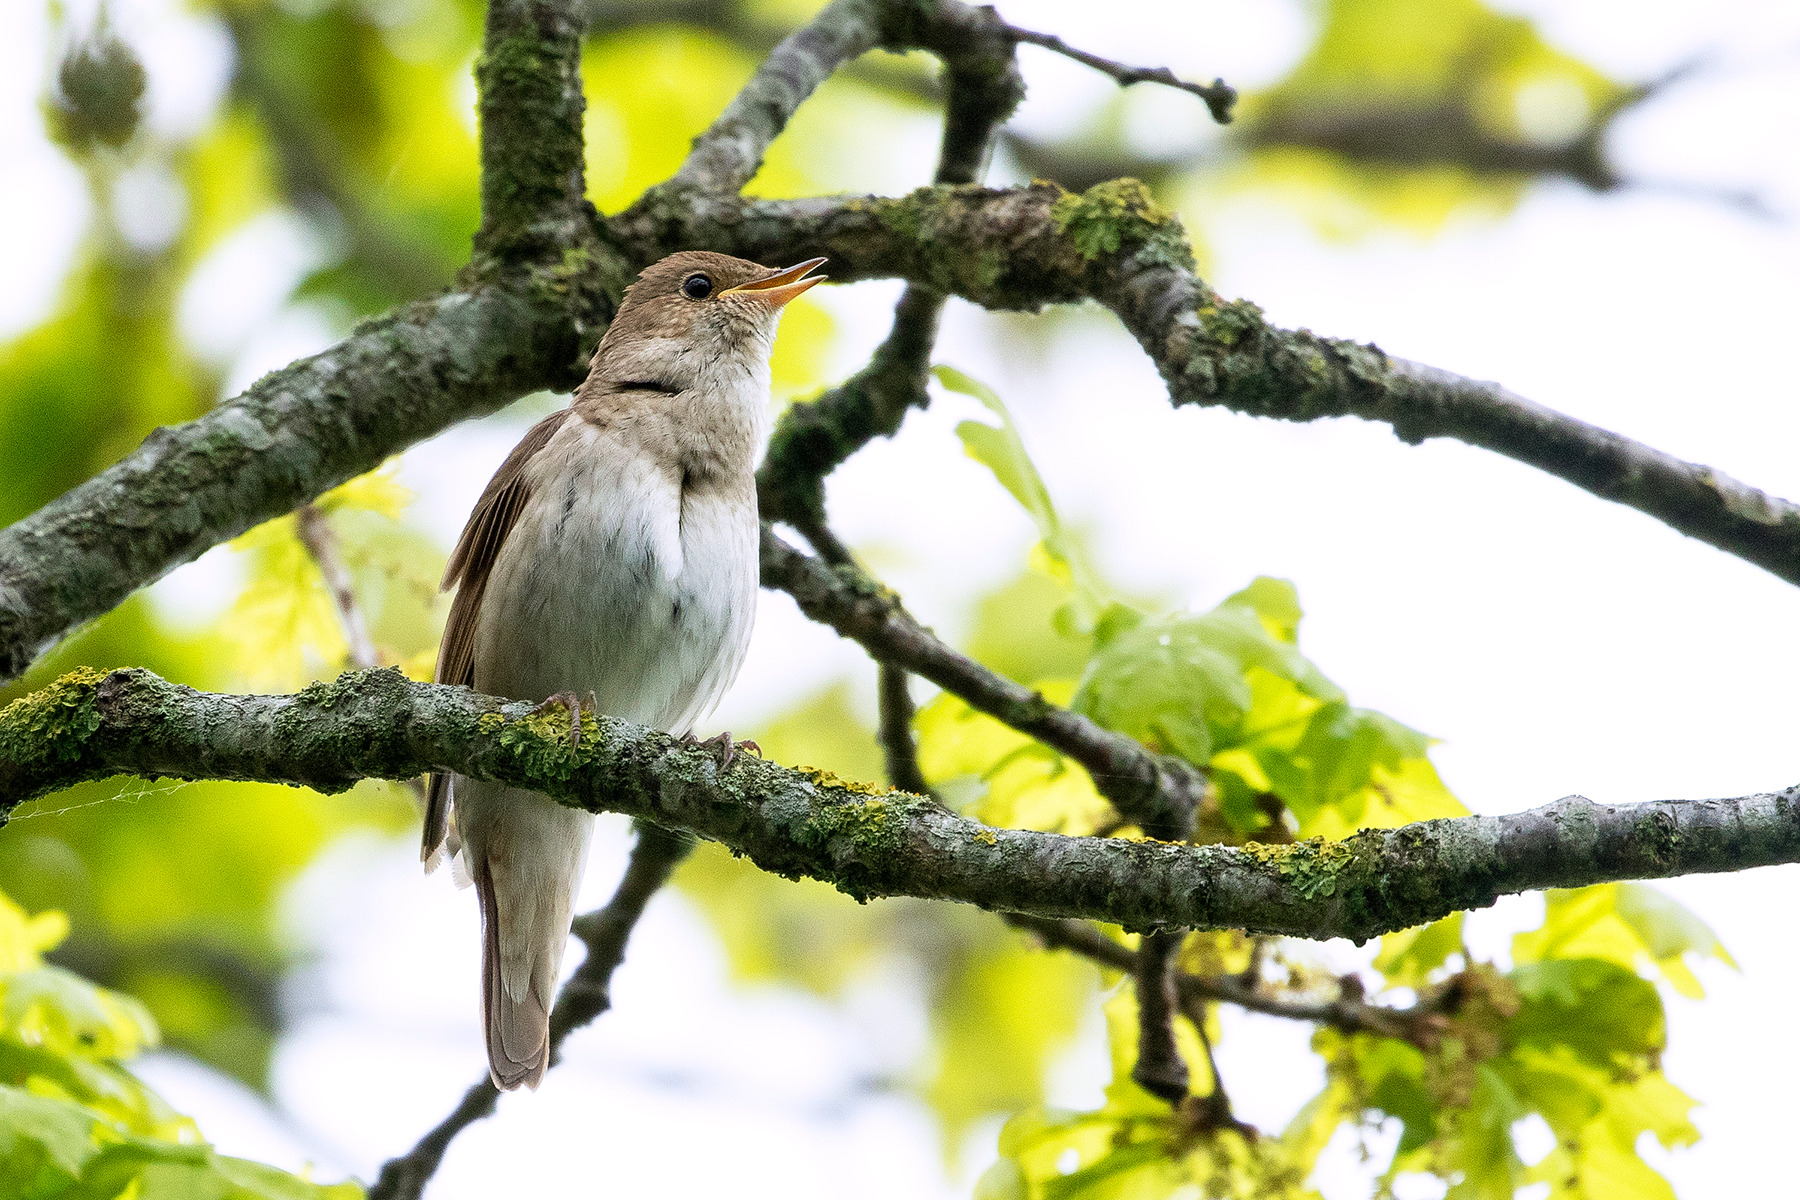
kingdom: Animalia
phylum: Chordata
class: Aves
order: Passeriformes
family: Muscicapidae
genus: Luscinia
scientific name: Luscinia luscinia
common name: Nattergal
